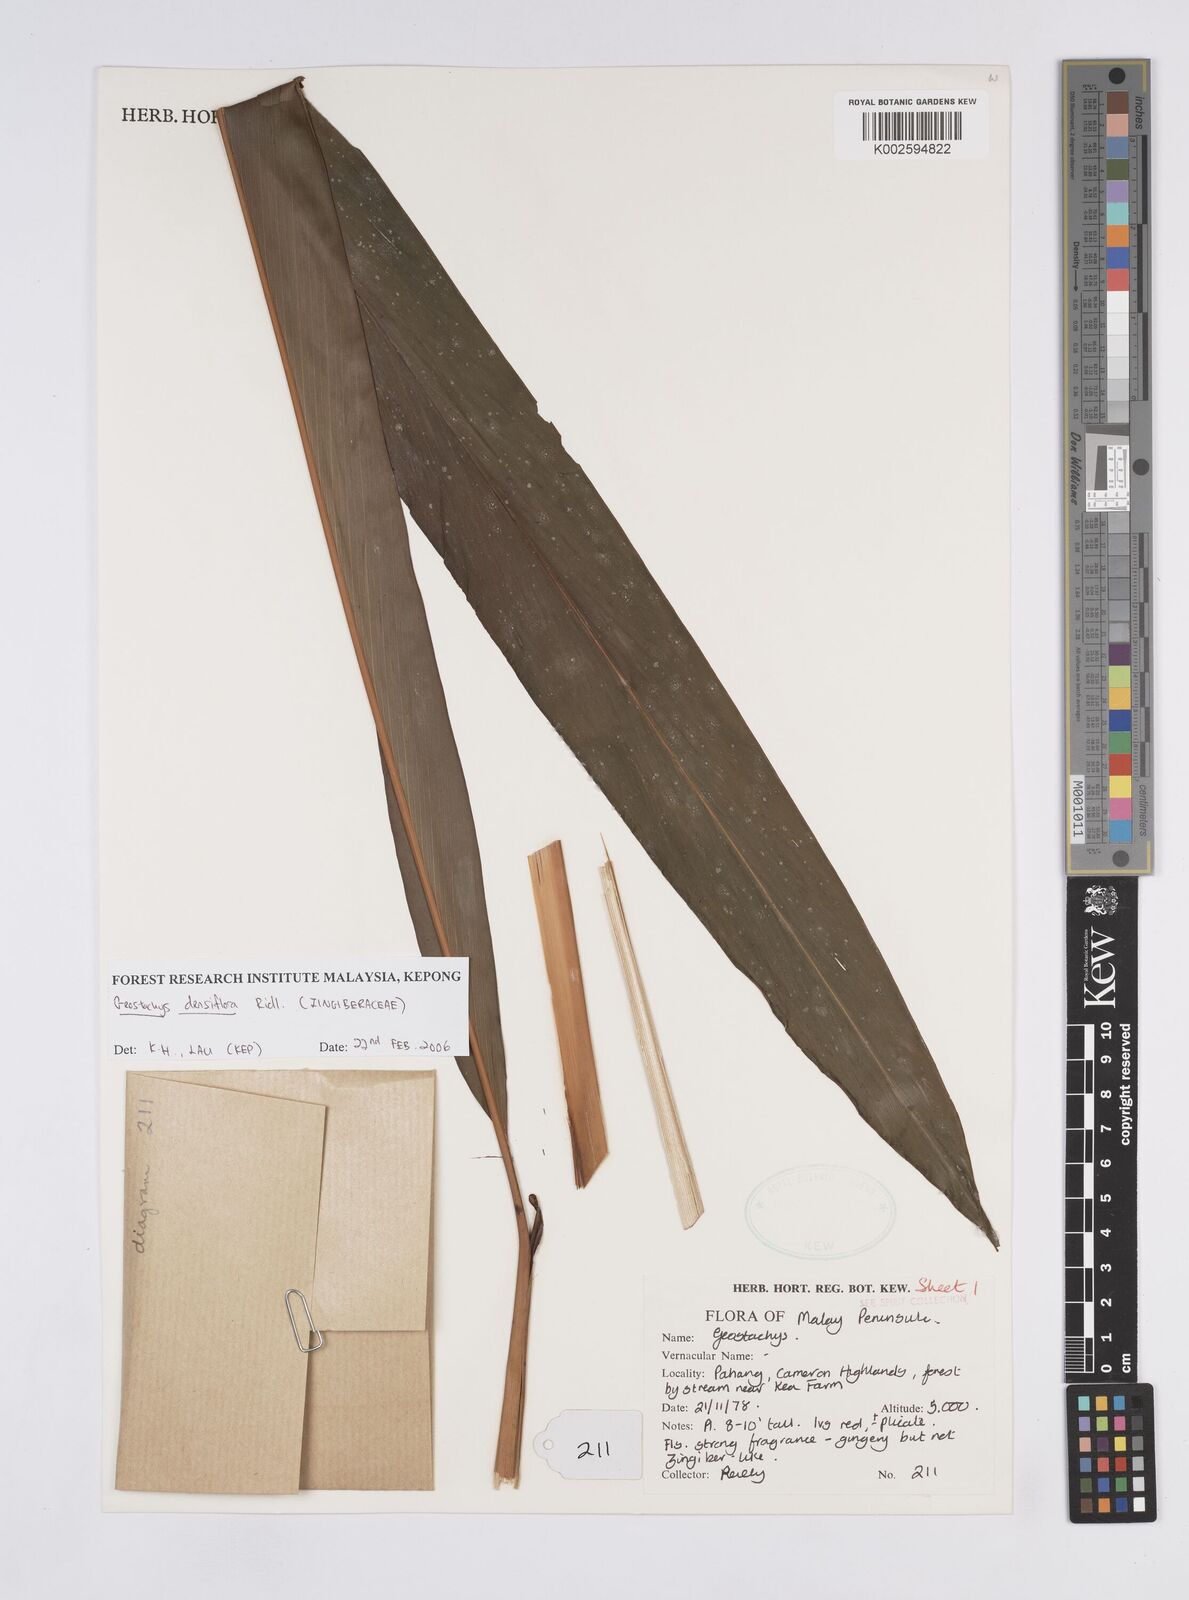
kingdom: Plantae
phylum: Tracheophyta
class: Liliopsida
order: Zingiberales
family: Zingiberaceae
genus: Geostachys
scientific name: Geostachys densiflora
